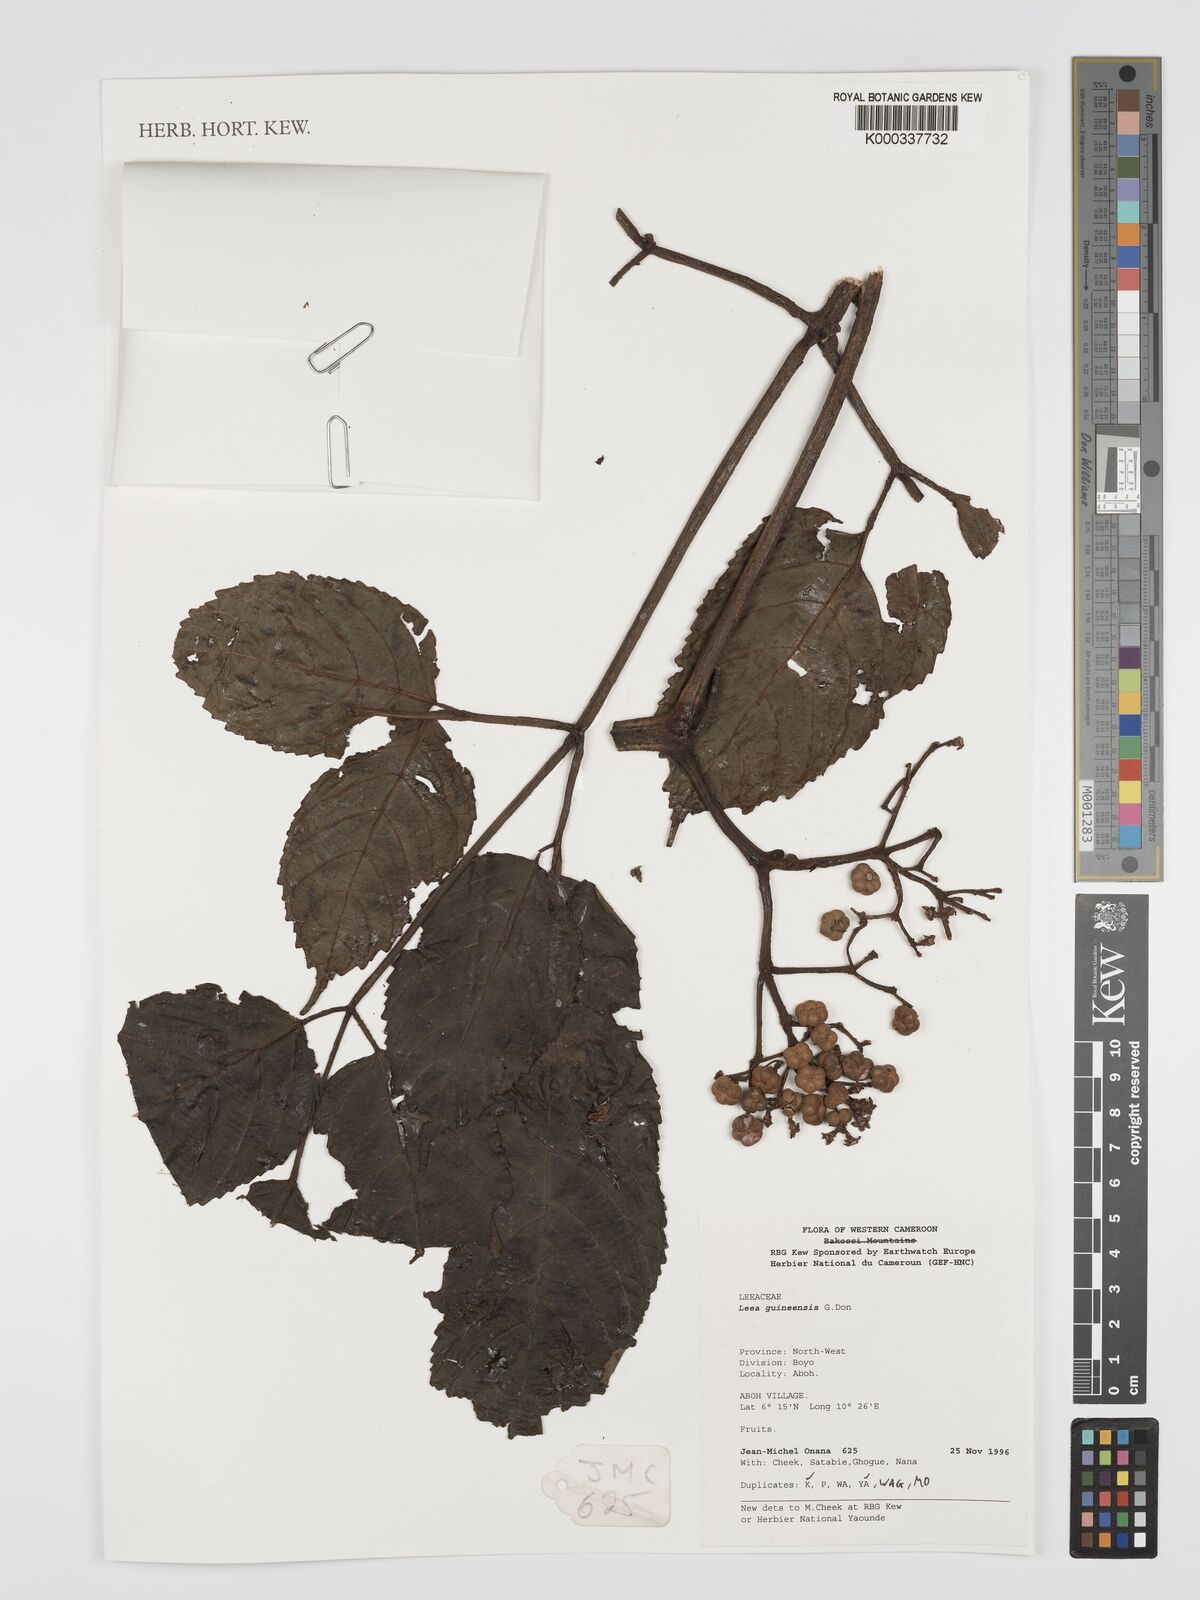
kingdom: Plantae
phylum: Tracheophyta
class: Magnoliopsida
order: Vitales
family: Vitaceae
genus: Leea
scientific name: Leea guineensis
